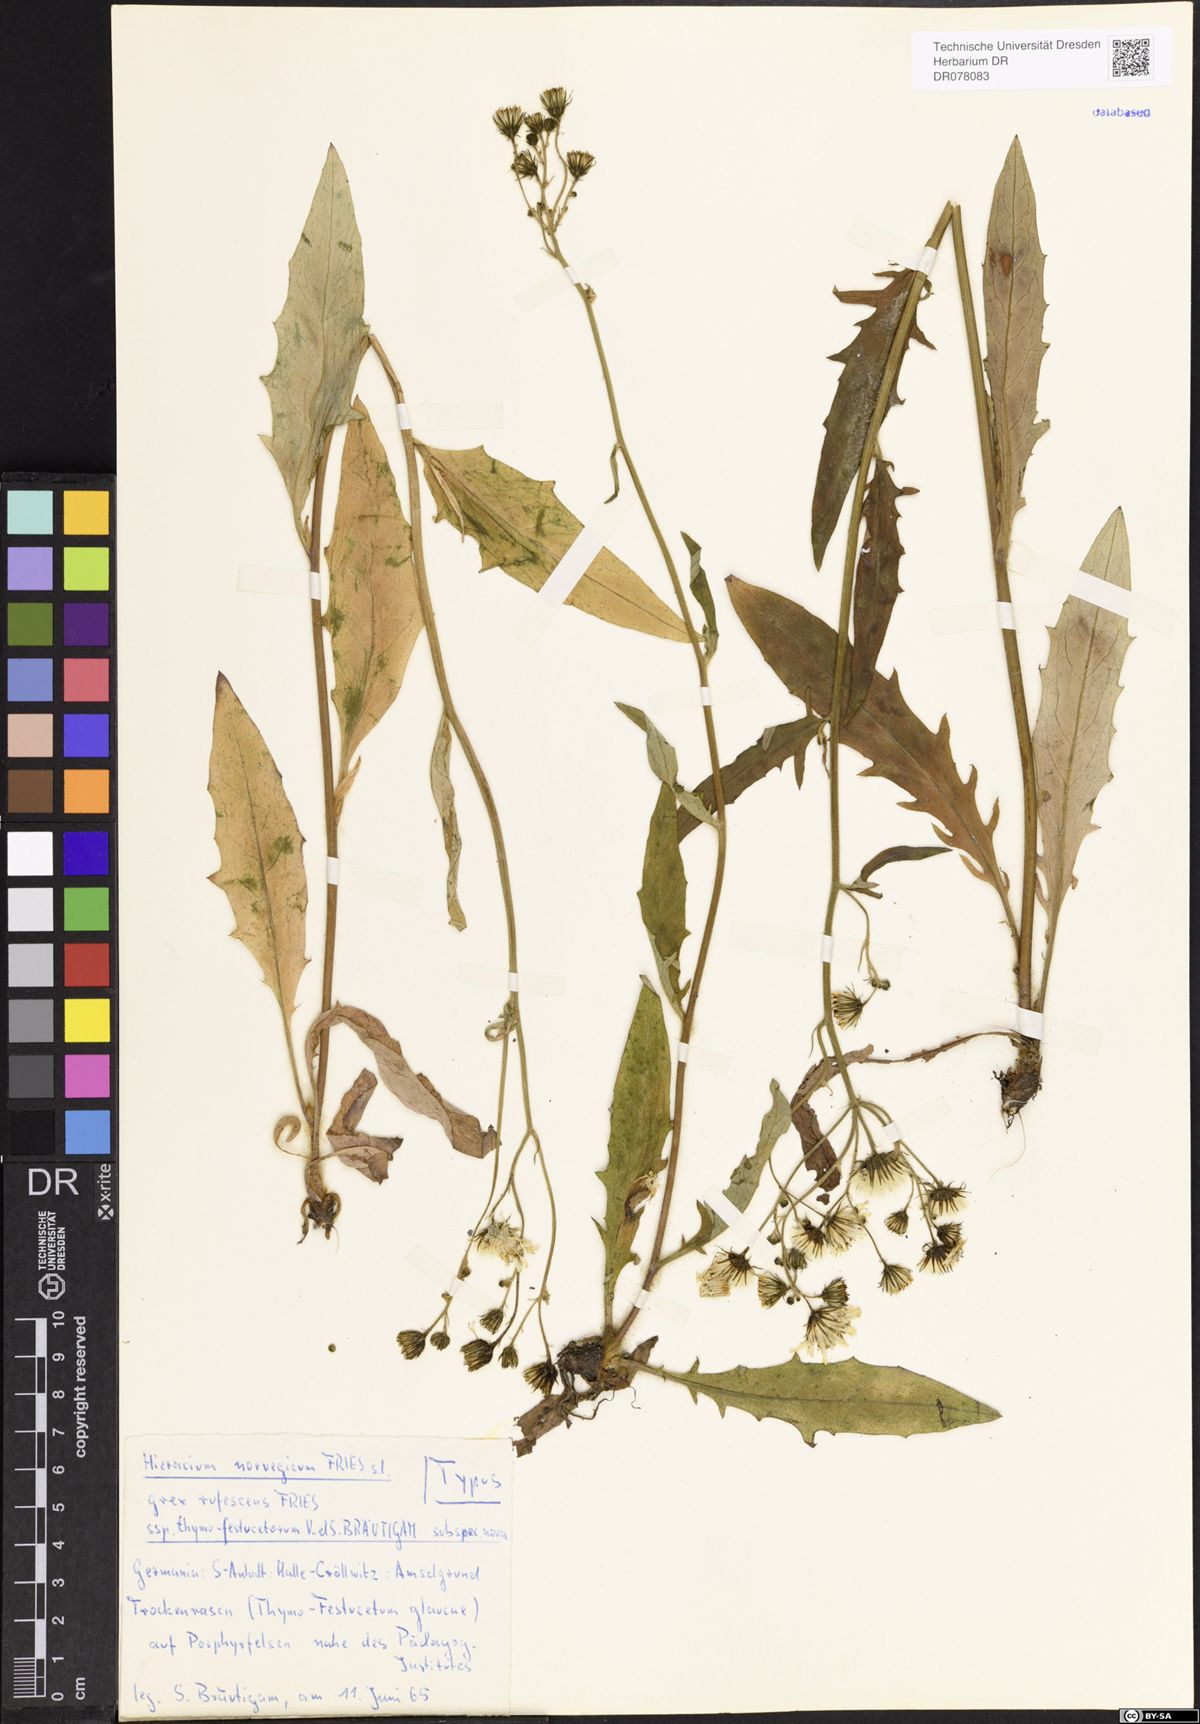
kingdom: Plantae
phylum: Tracheophyta
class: Magnoliopsida
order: Asterales
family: Asteraceae
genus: Hieracium
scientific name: Hieracium norvegicum
